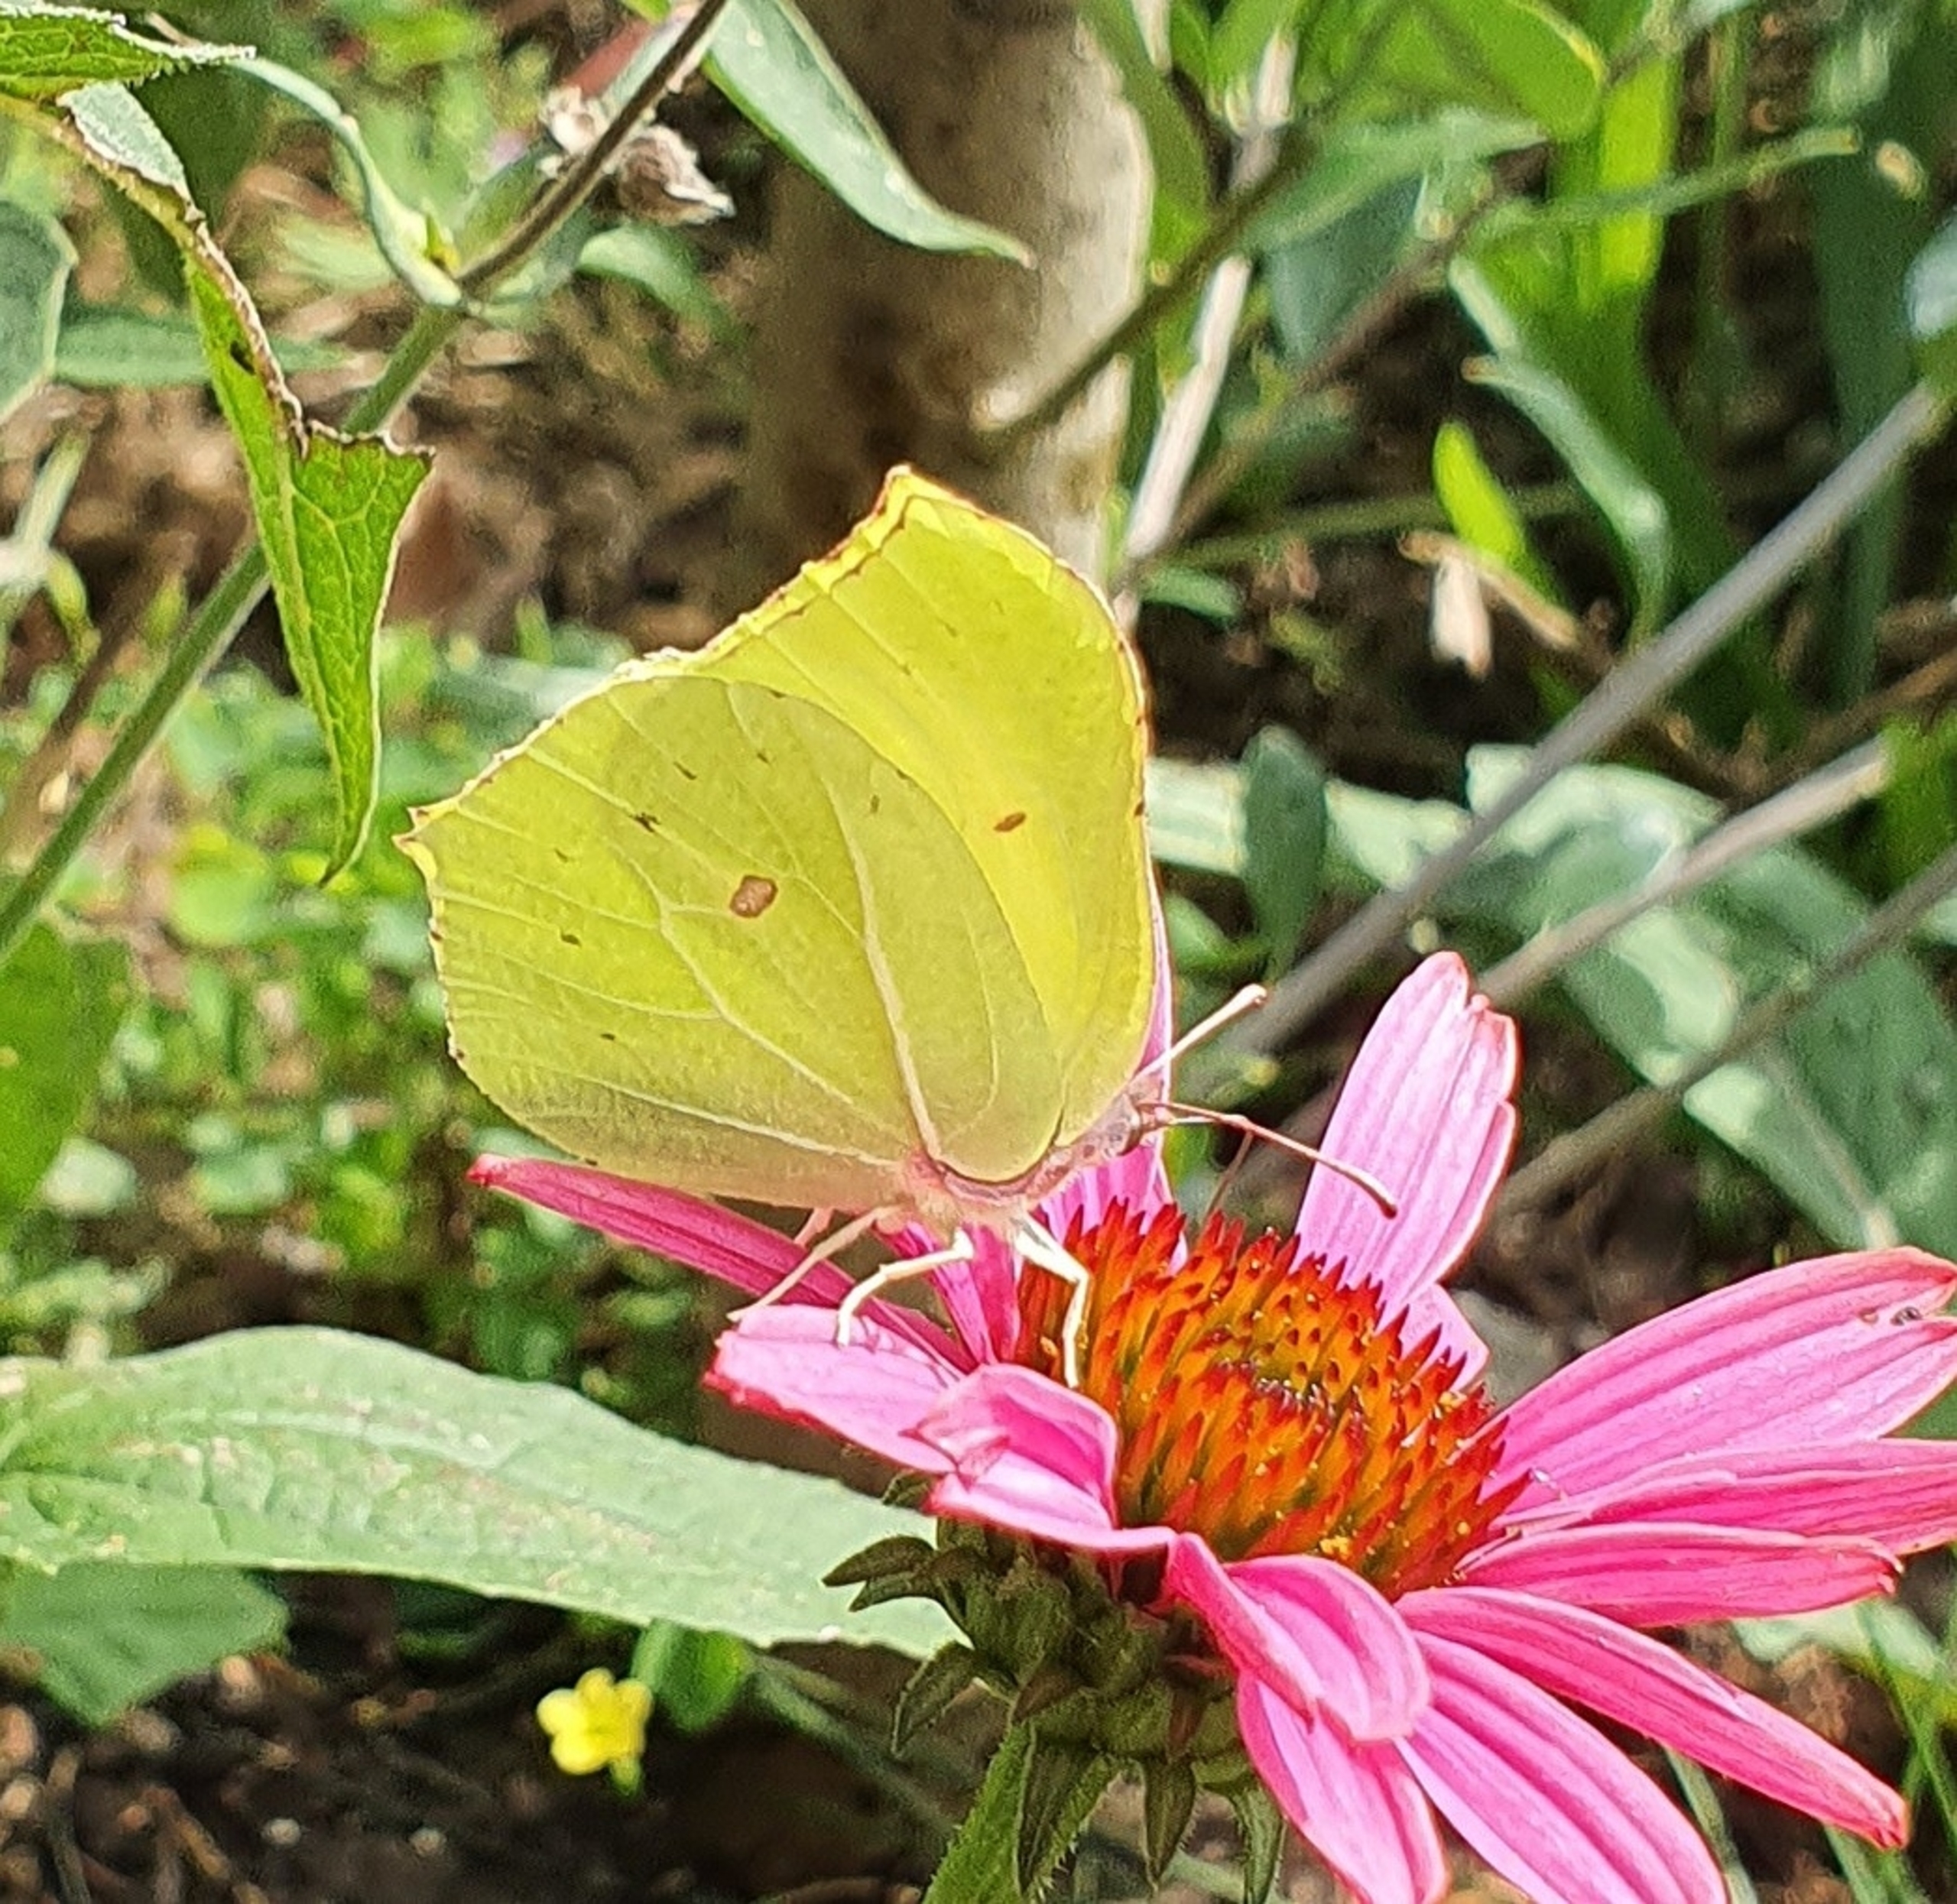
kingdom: Animalia
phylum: Arthropoda
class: Insecta
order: Lepidoptera
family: Pieridae
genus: Gonepteryx
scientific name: Gonepteryx rhamni
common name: Citronsommerfugl
